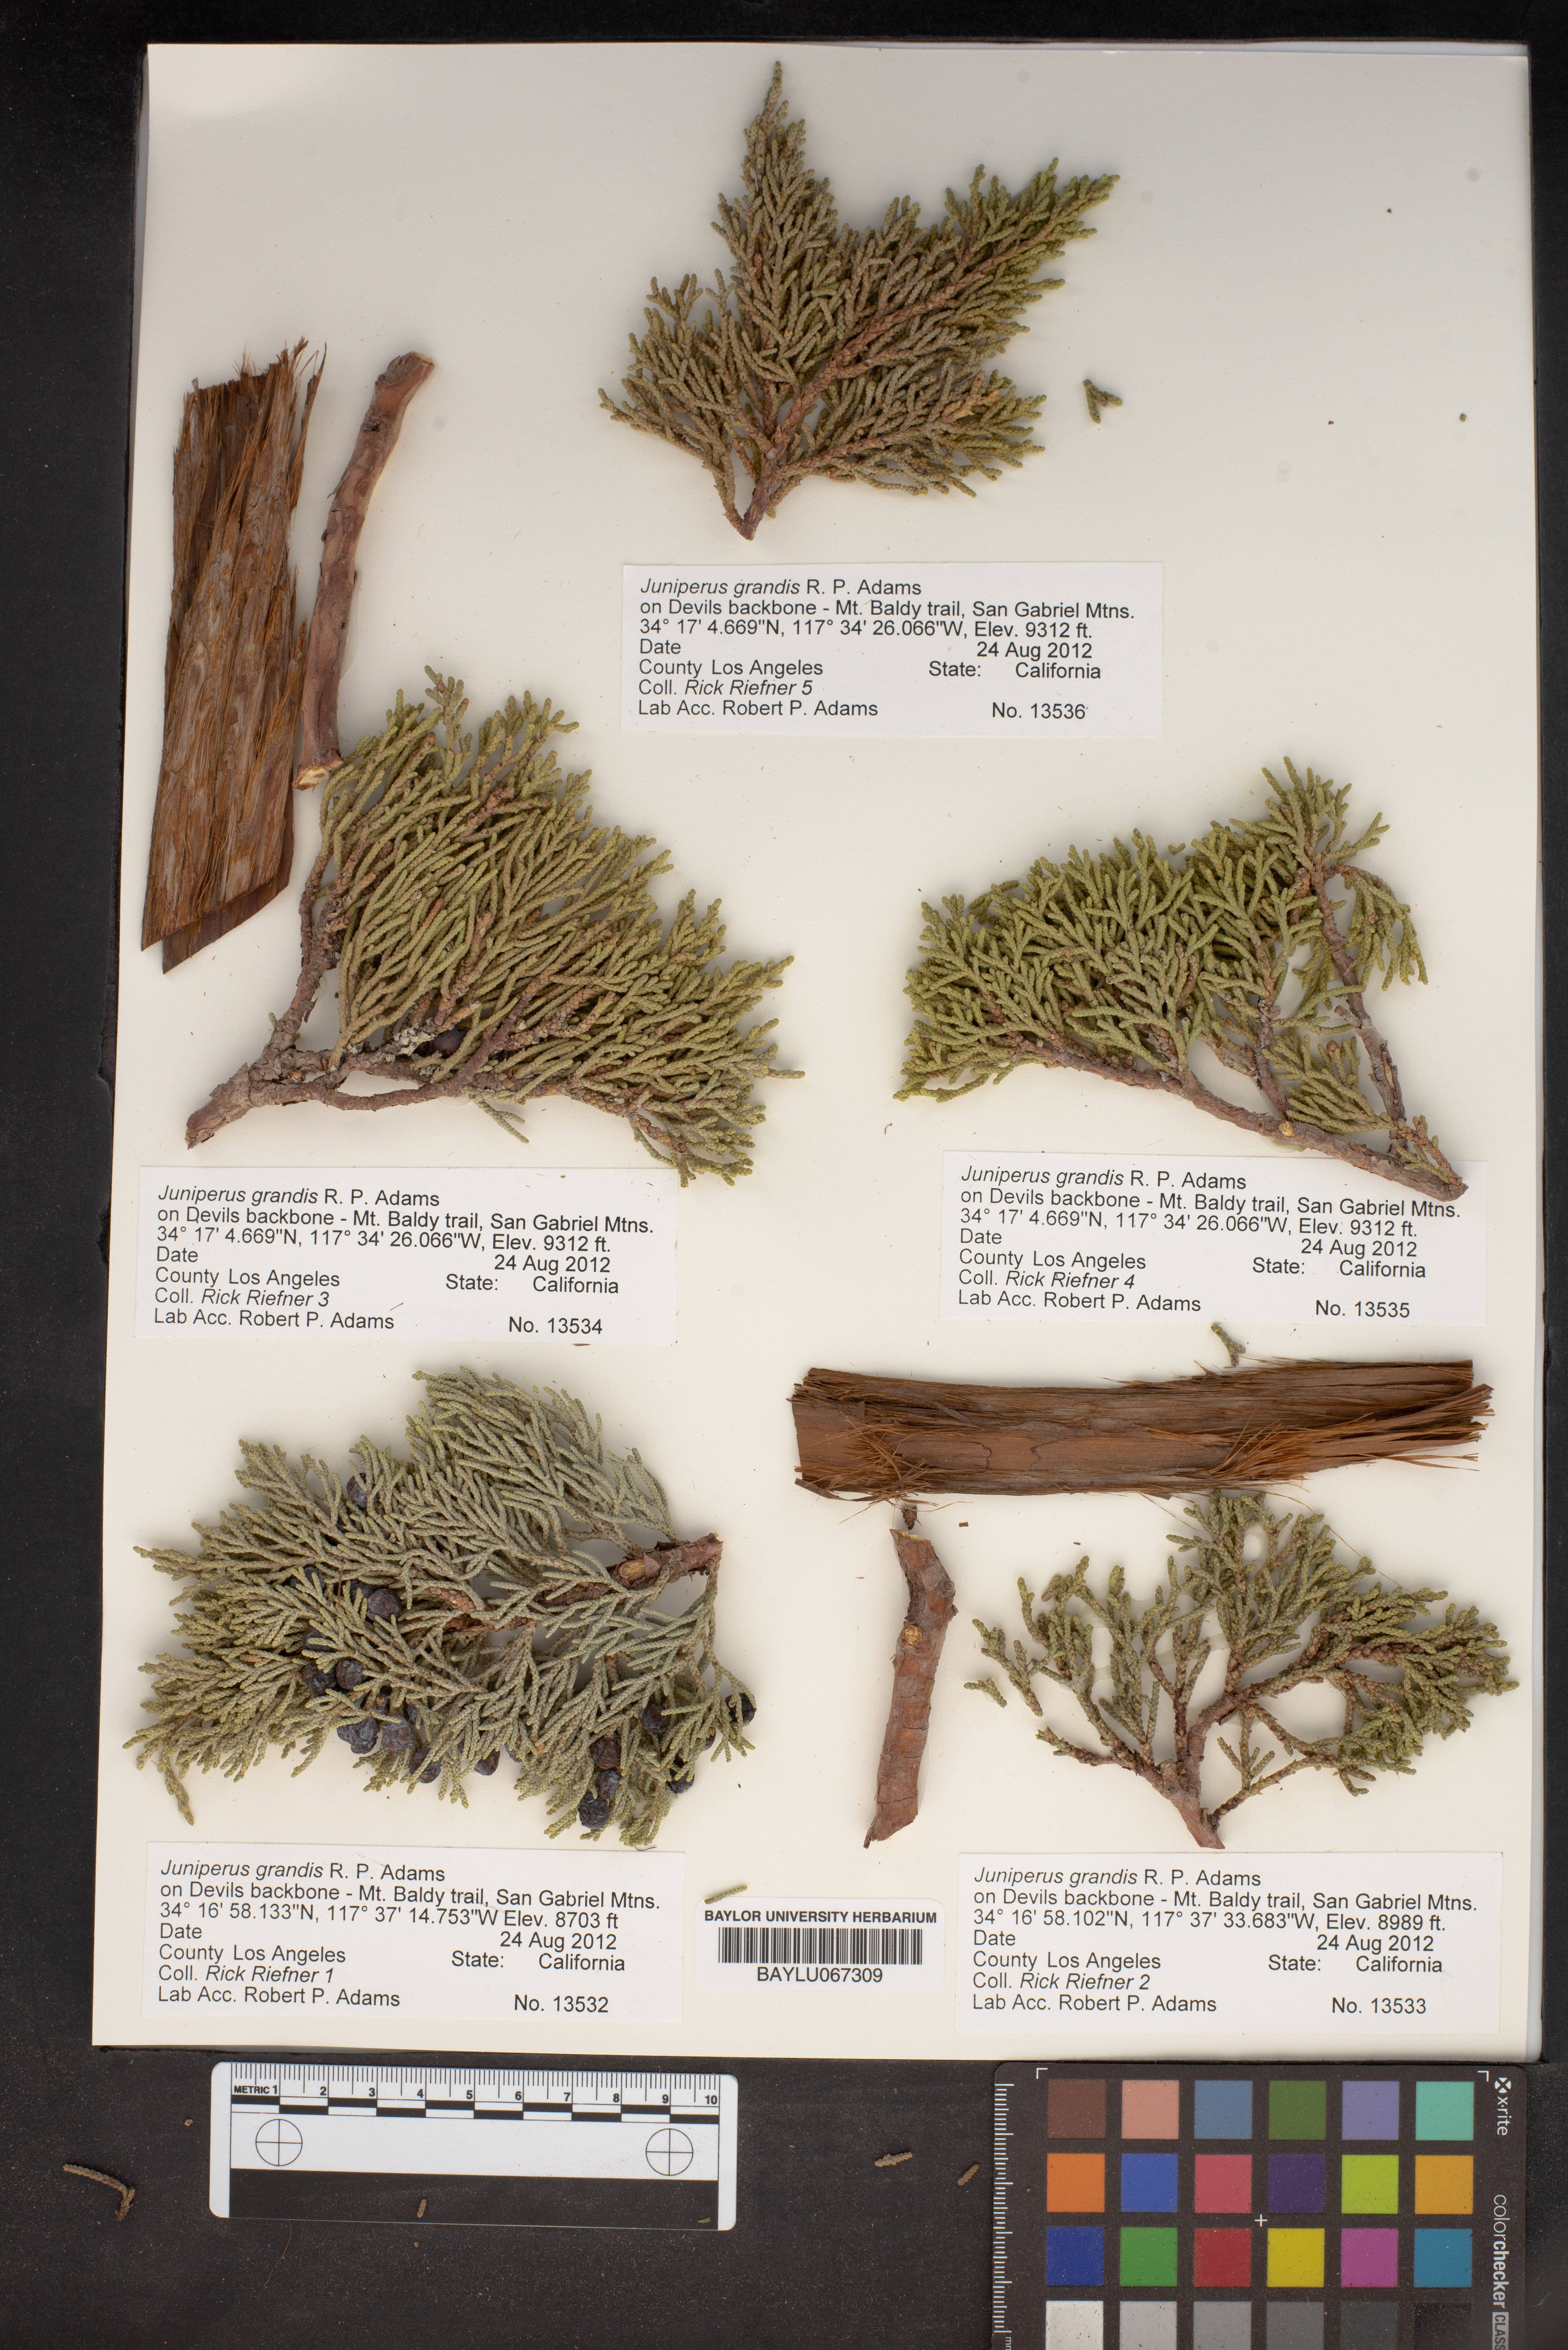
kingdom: Plantae
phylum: Tracheophyta
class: Pinopsida
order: Pinales
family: Cupressaceae
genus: Juniperus
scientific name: Juniperus occidentalis
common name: Western juniper
